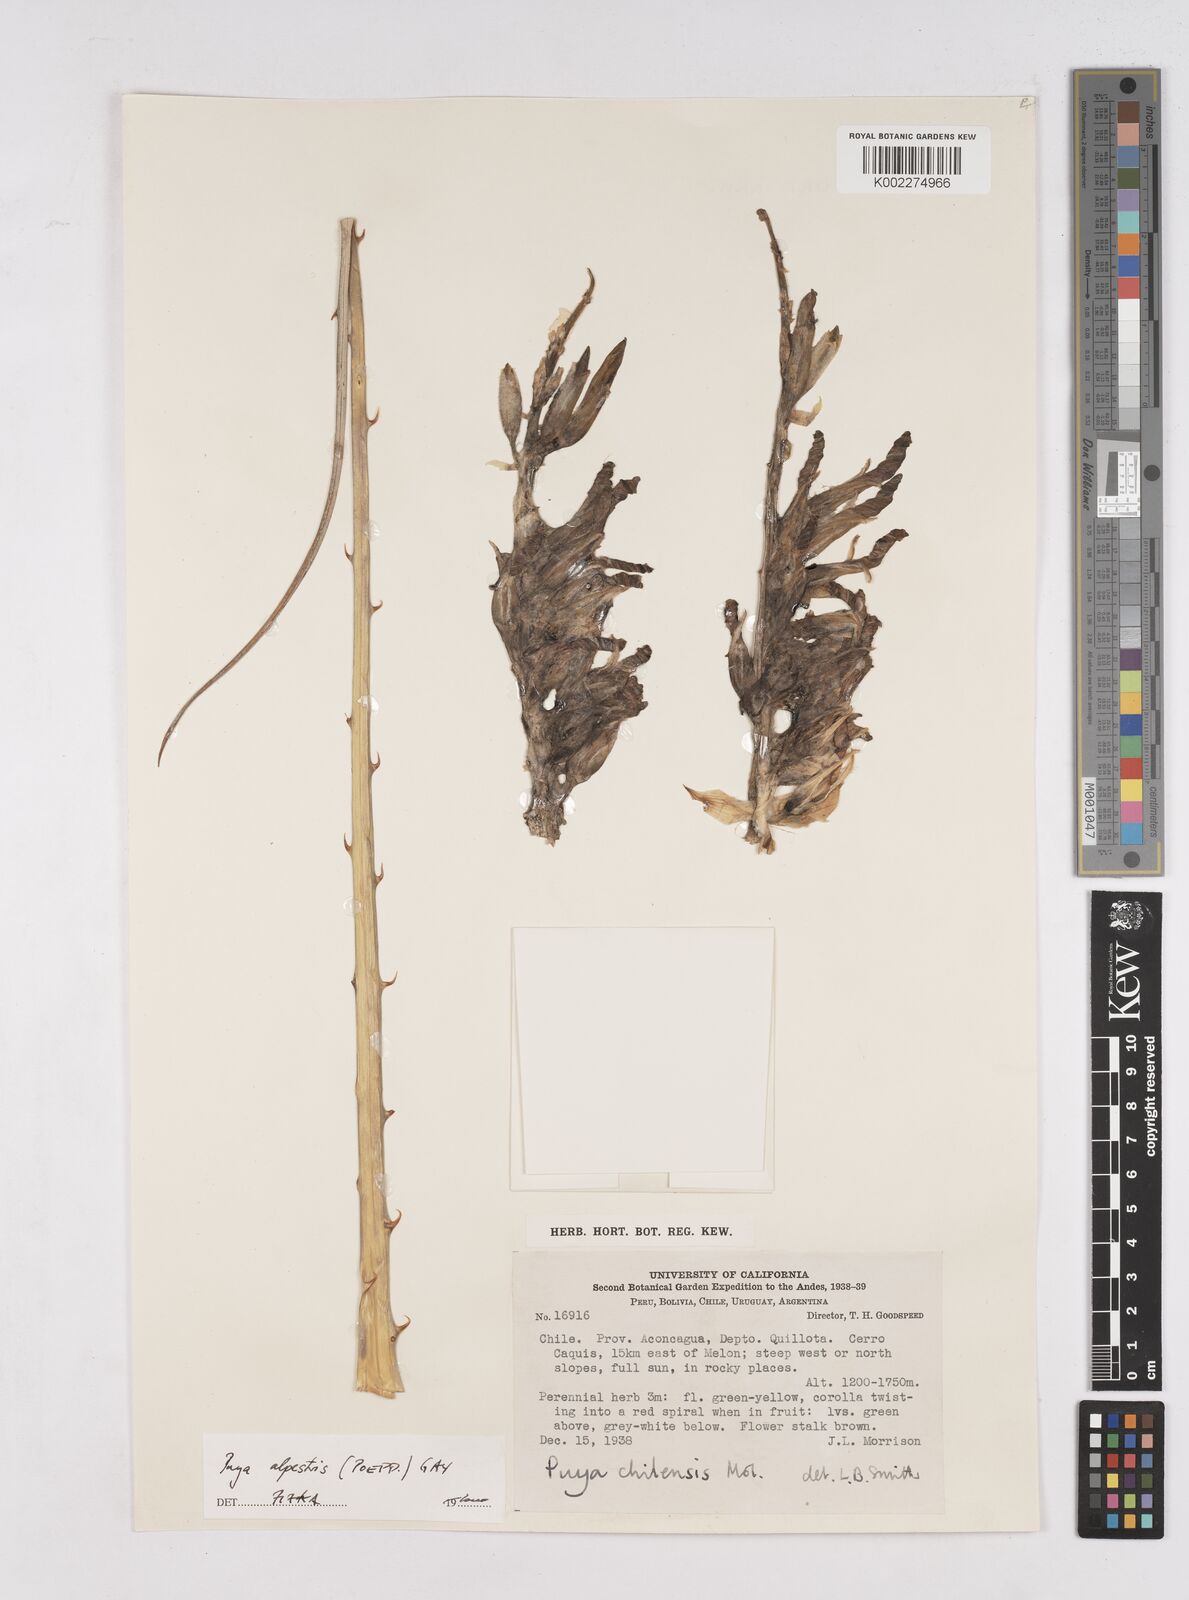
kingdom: Plantae
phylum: Tracheophyta
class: Liliopsida
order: Poales
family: Bromeliaceae
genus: Puya
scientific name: Puya alpestris
